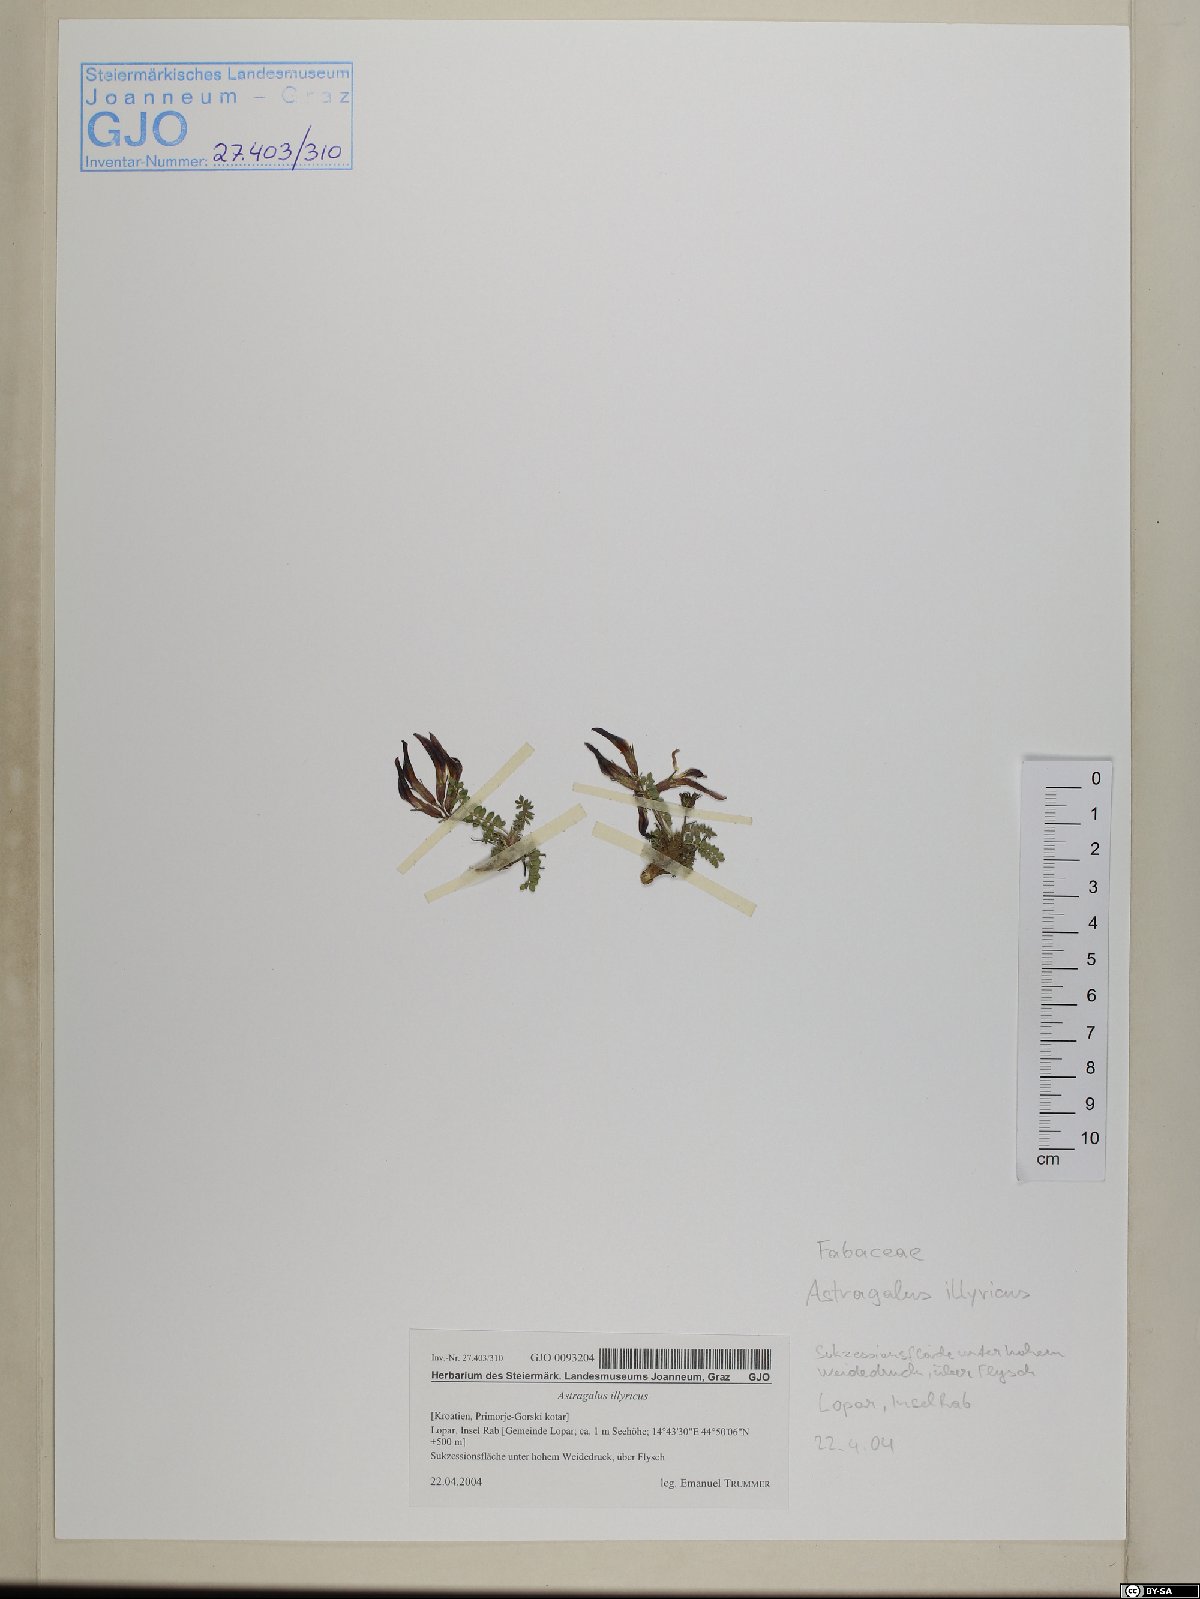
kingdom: Plantae
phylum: Tracheophyta
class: Magnoliopsida
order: Fabales
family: Fabaceae
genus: Astragalus
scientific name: Astragalus monspessulanus
